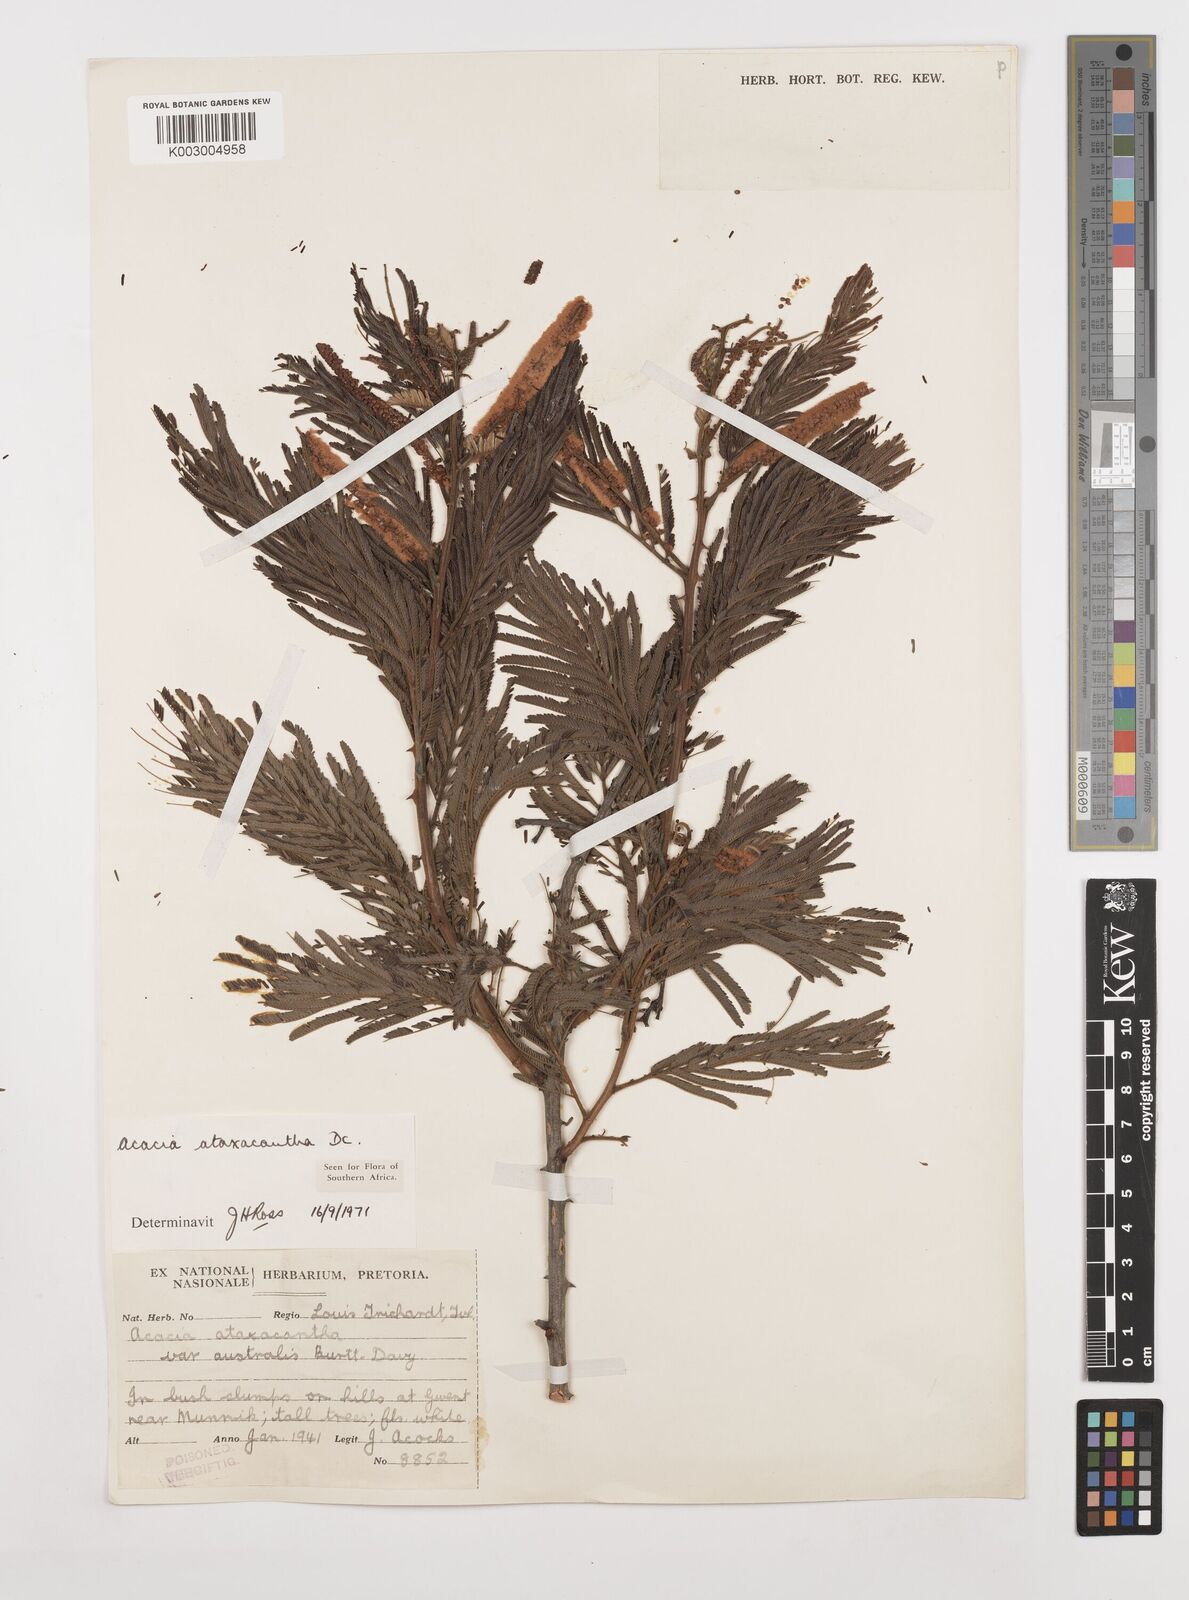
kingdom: Plantae
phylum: Tracheophyta
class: Magnoliopsida
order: Fabales
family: Fabaceae
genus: Senegalia
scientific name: Senegalia ataxacantha
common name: Flame acacia
